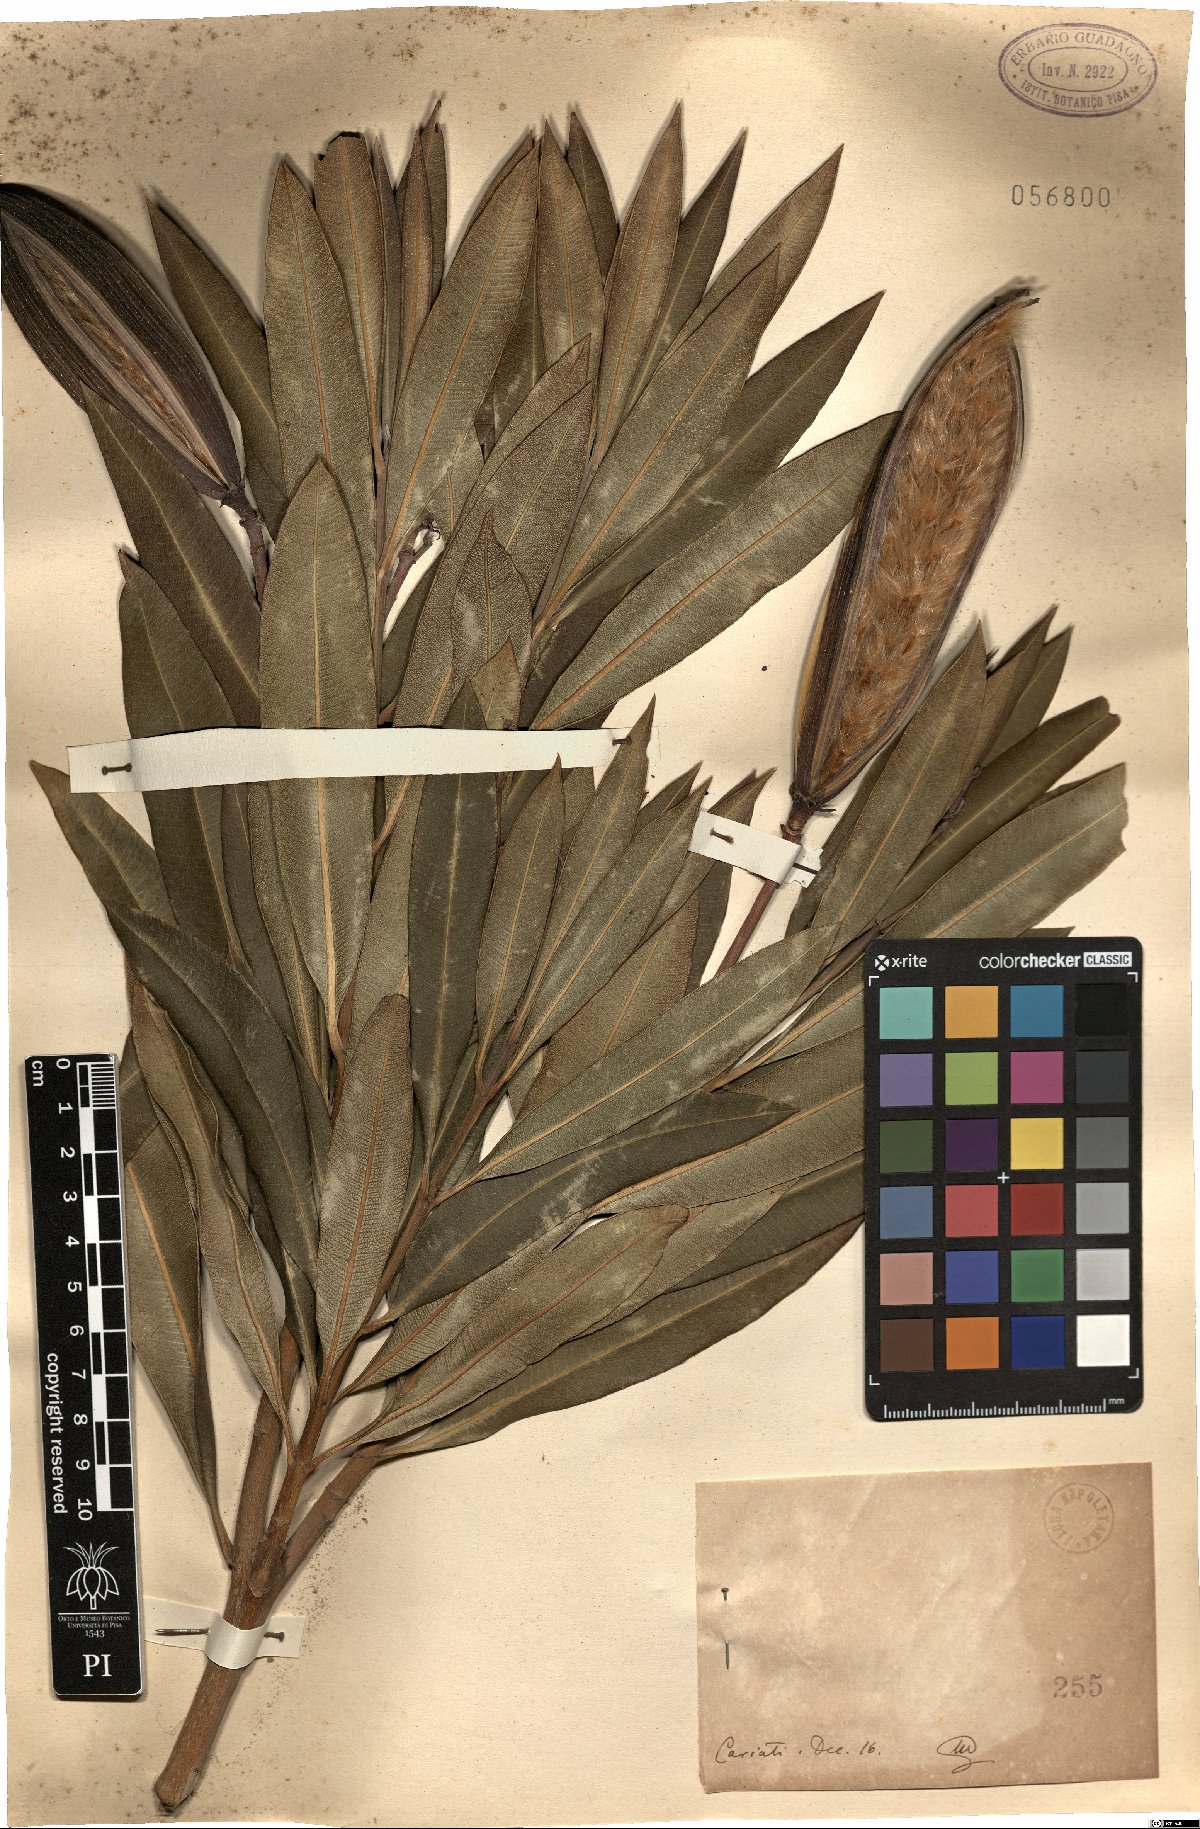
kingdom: Plantae
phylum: Tracheophyta
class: Magnoliopsida
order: Gentianales
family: Apocynaceae
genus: Nerium
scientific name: Nerium
